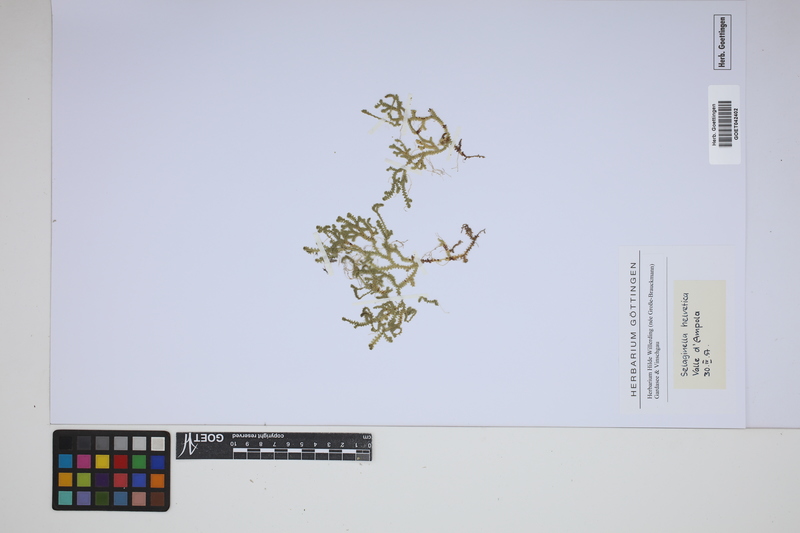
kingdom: Plantae
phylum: Tracheophyta
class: Lycopodiopsida
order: Selaginellales
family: Selaginellaceae
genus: Selaginella
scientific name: Selaginella helvetica
